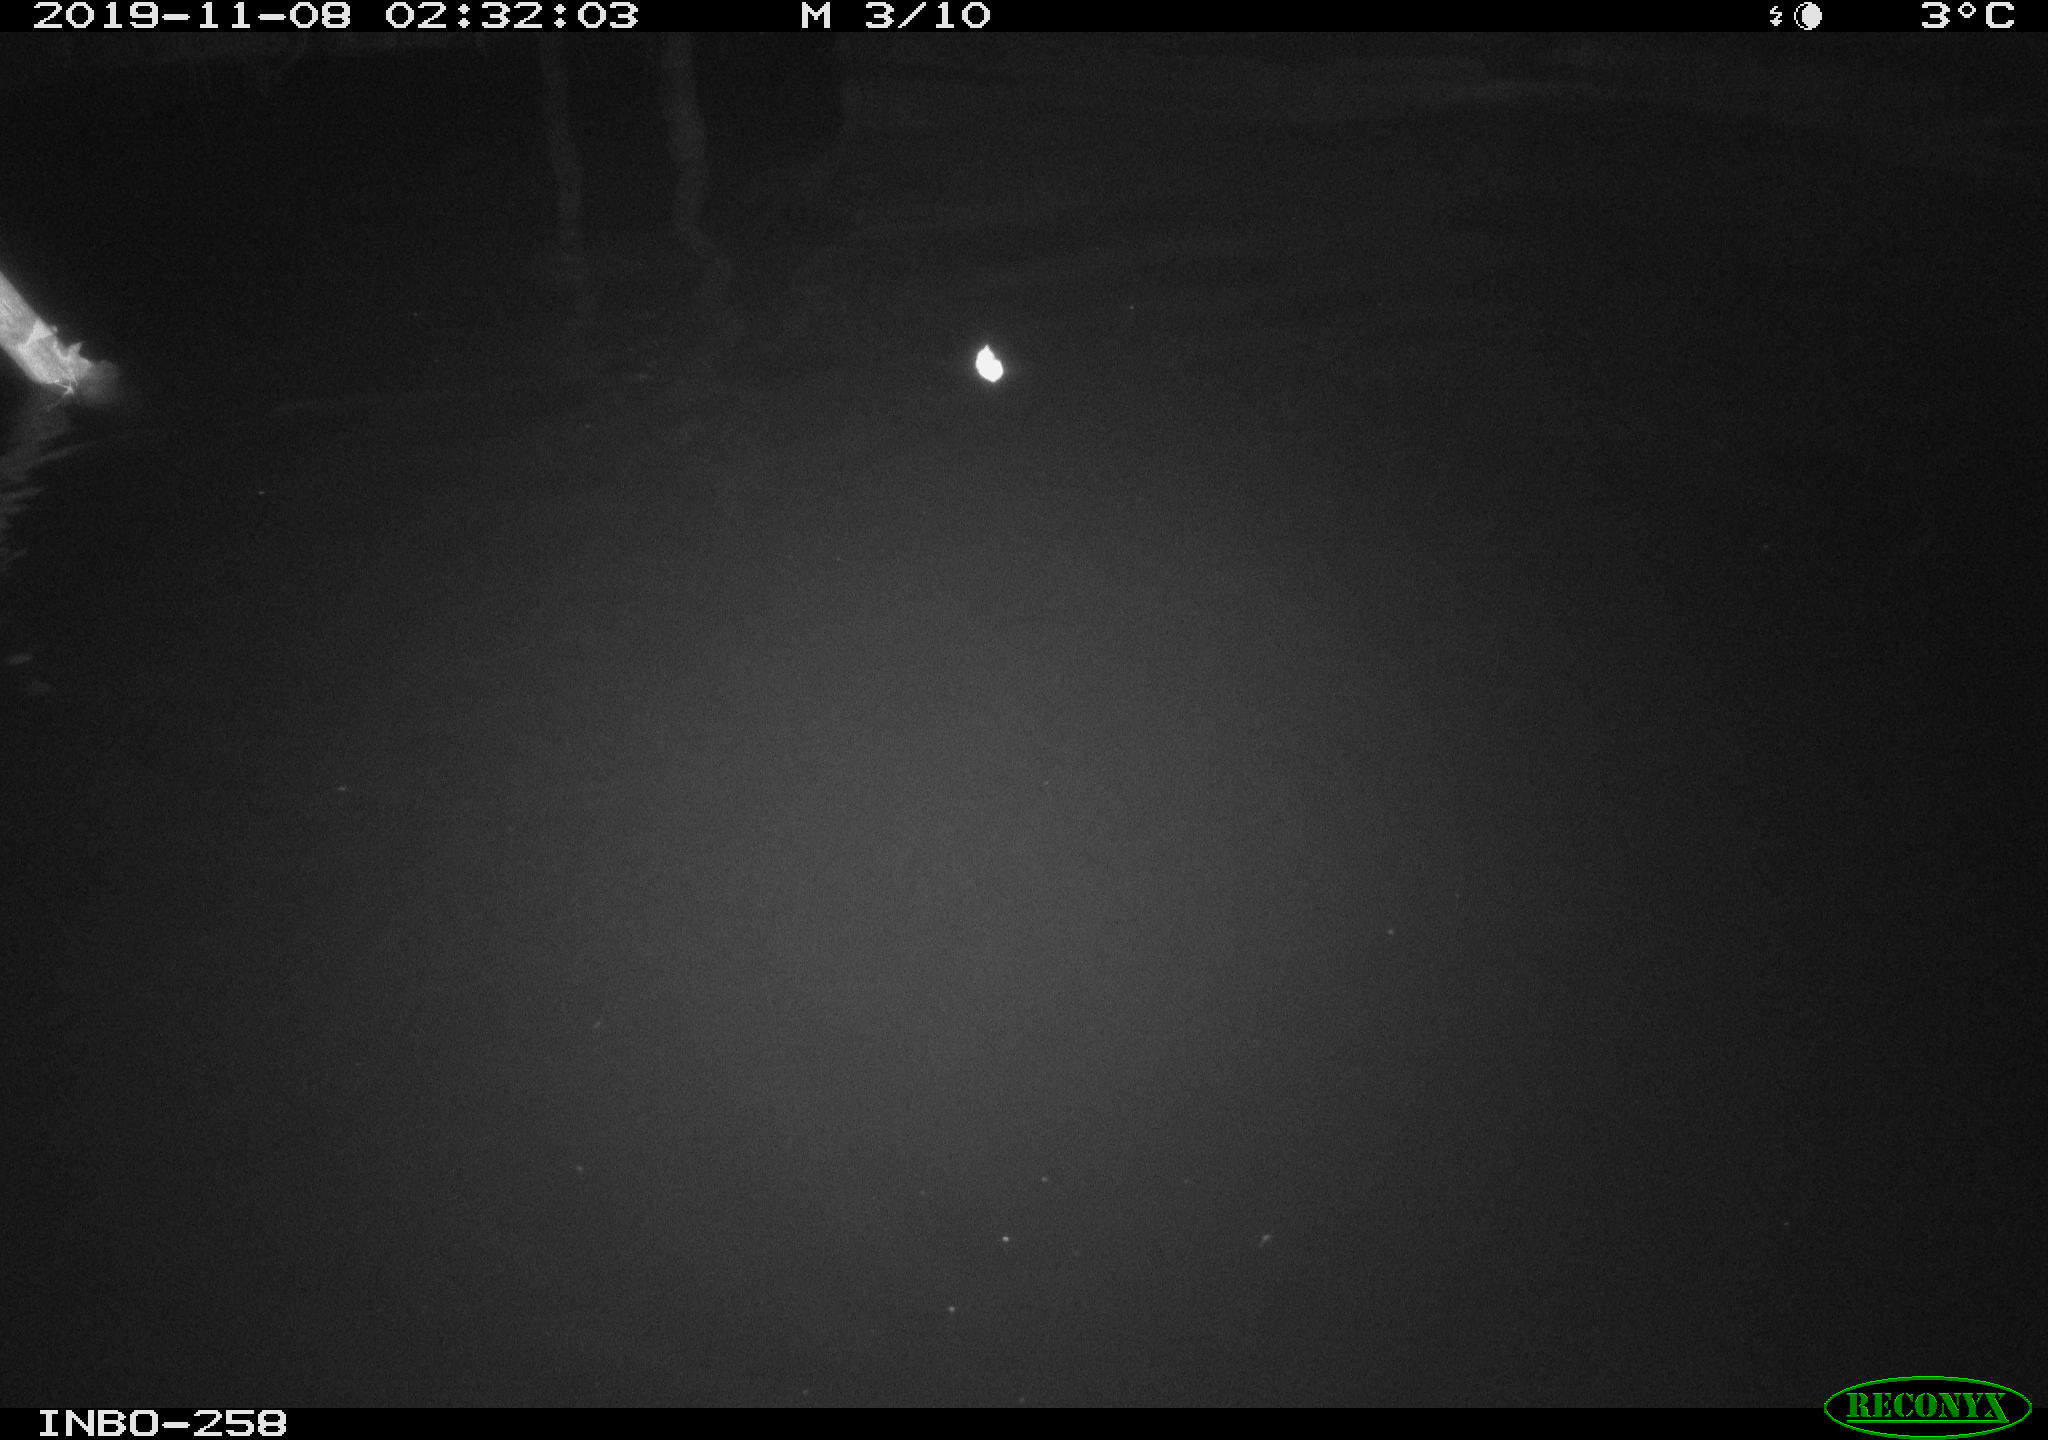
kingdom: Animalia
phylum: Chordata
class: Aves
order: Anseriformes
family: Anatidae
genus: Anas
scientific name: Anas platyrhynchos
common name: Mallard
